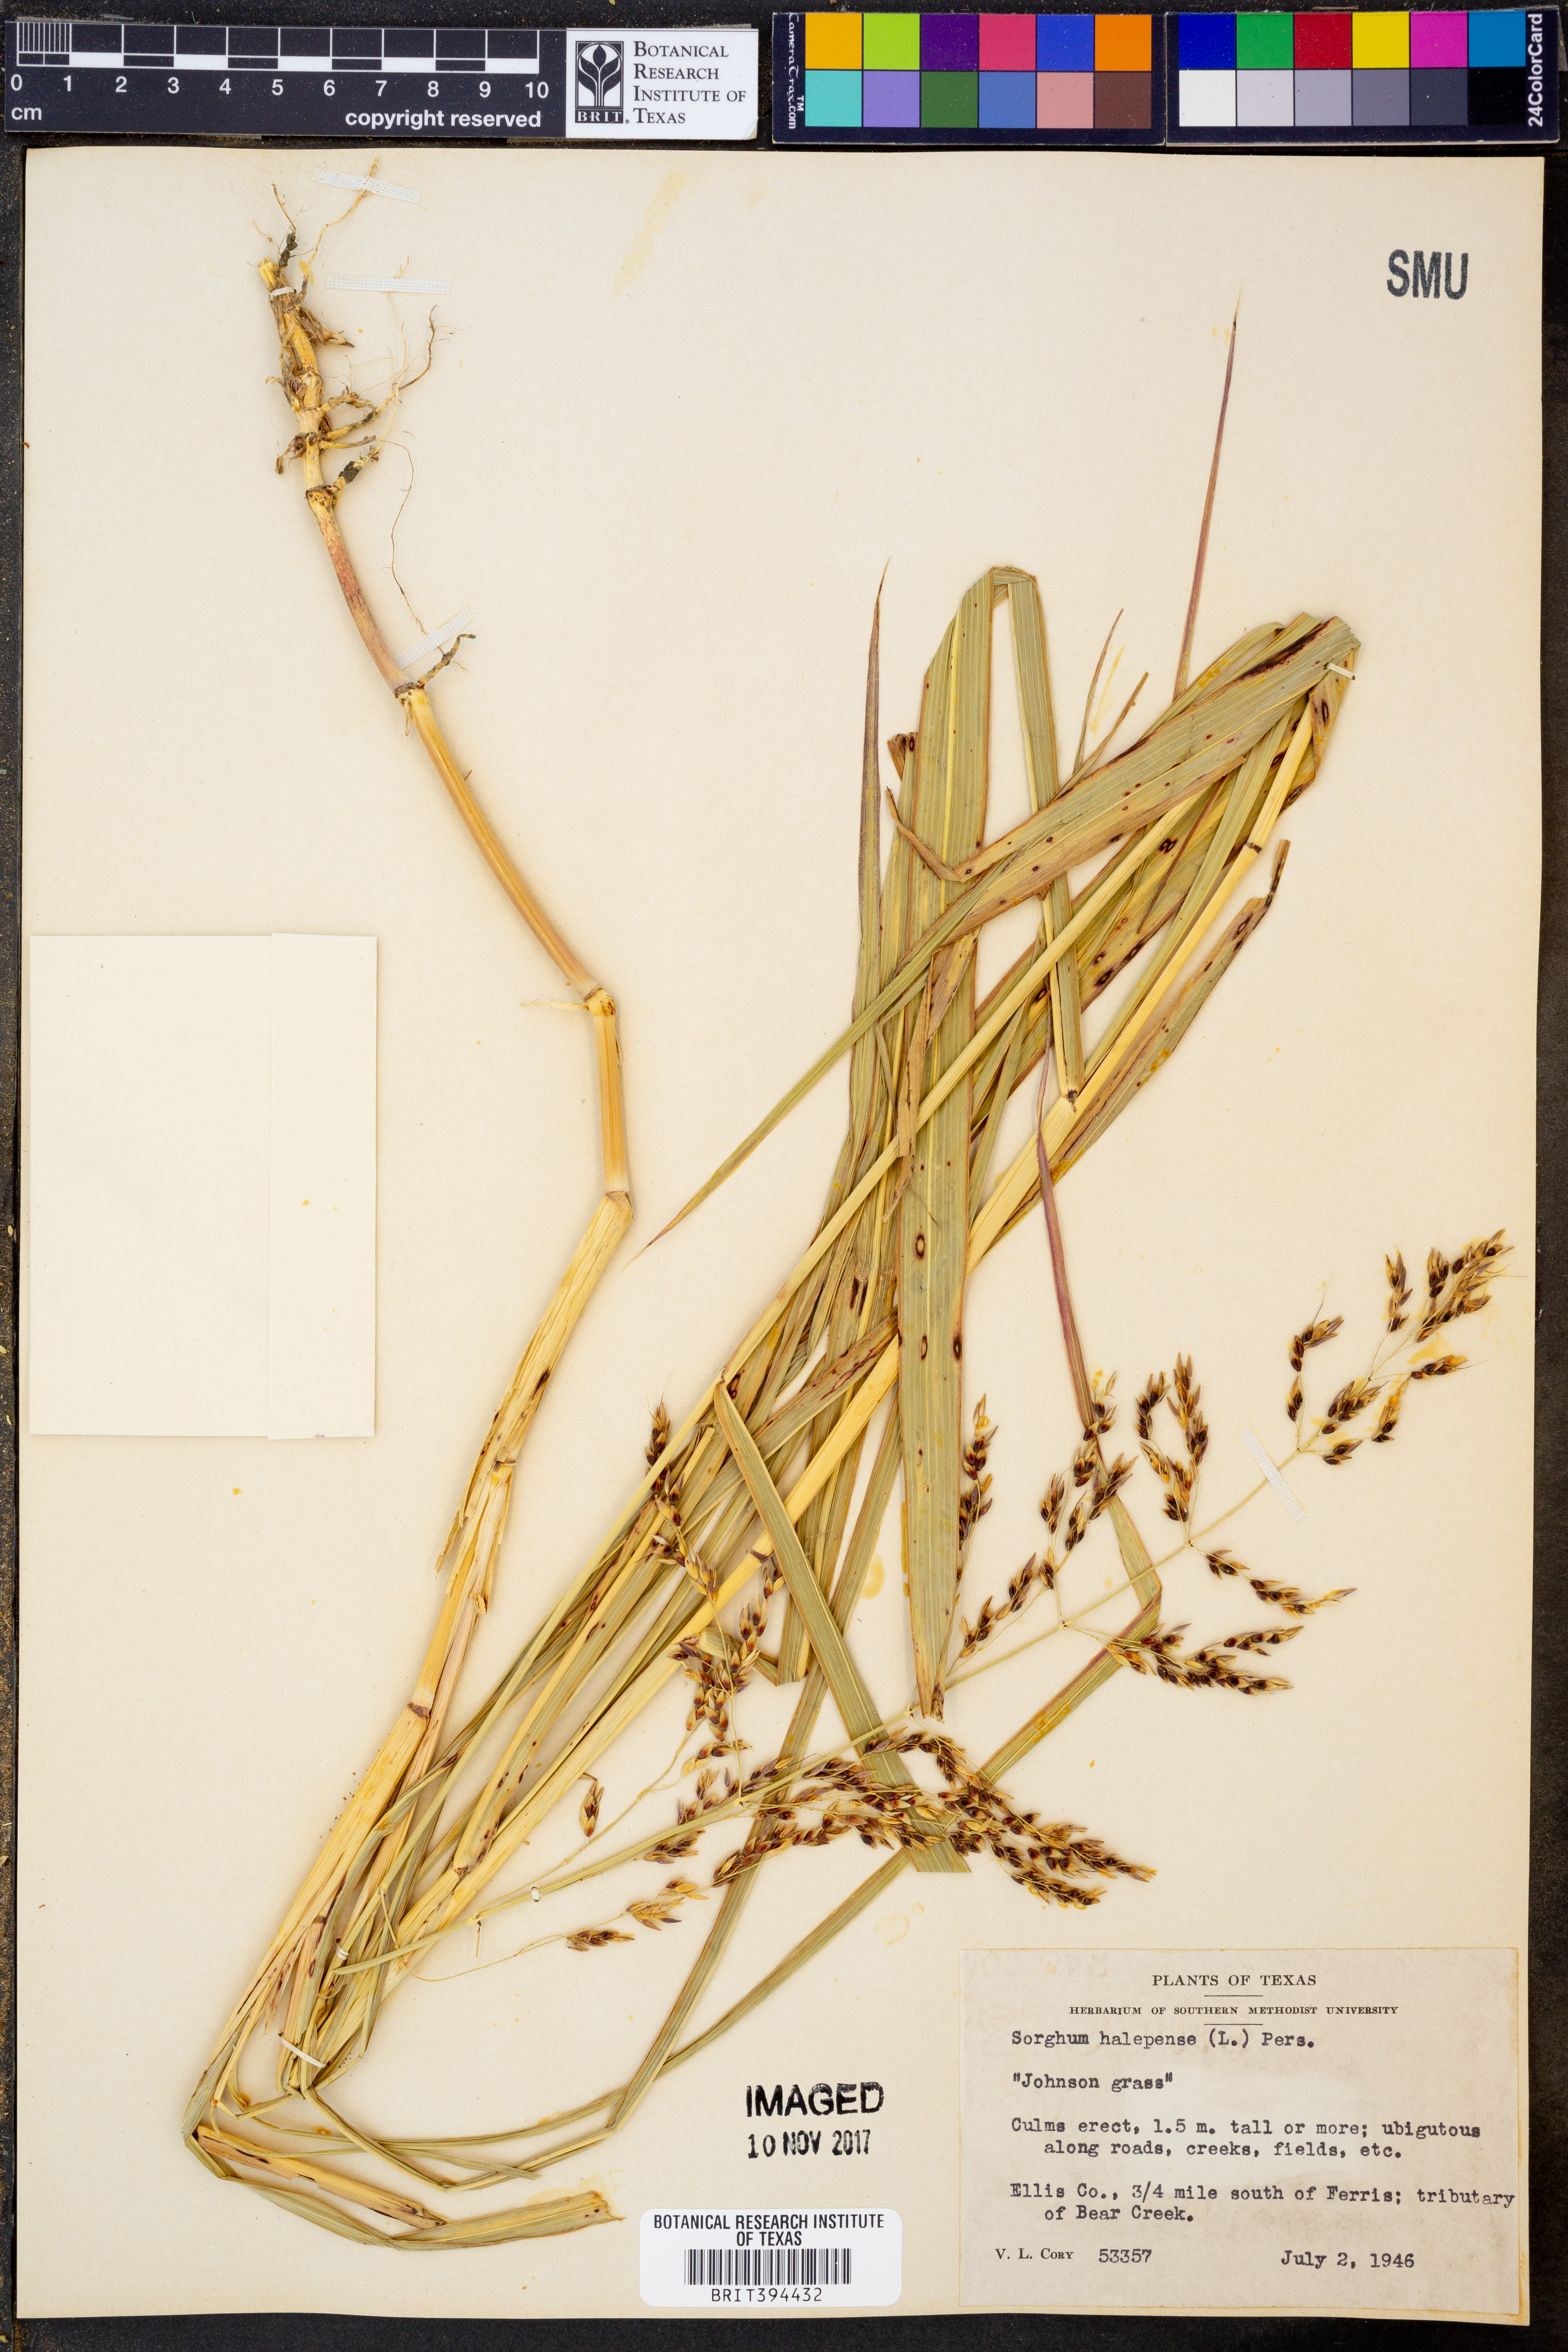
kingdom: Plantae
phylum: Tracheophyta
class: Liliopsida
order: Poales
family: Poaceae
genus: Sorghum
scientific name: Sorghum halepense
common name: Johnson-grass
